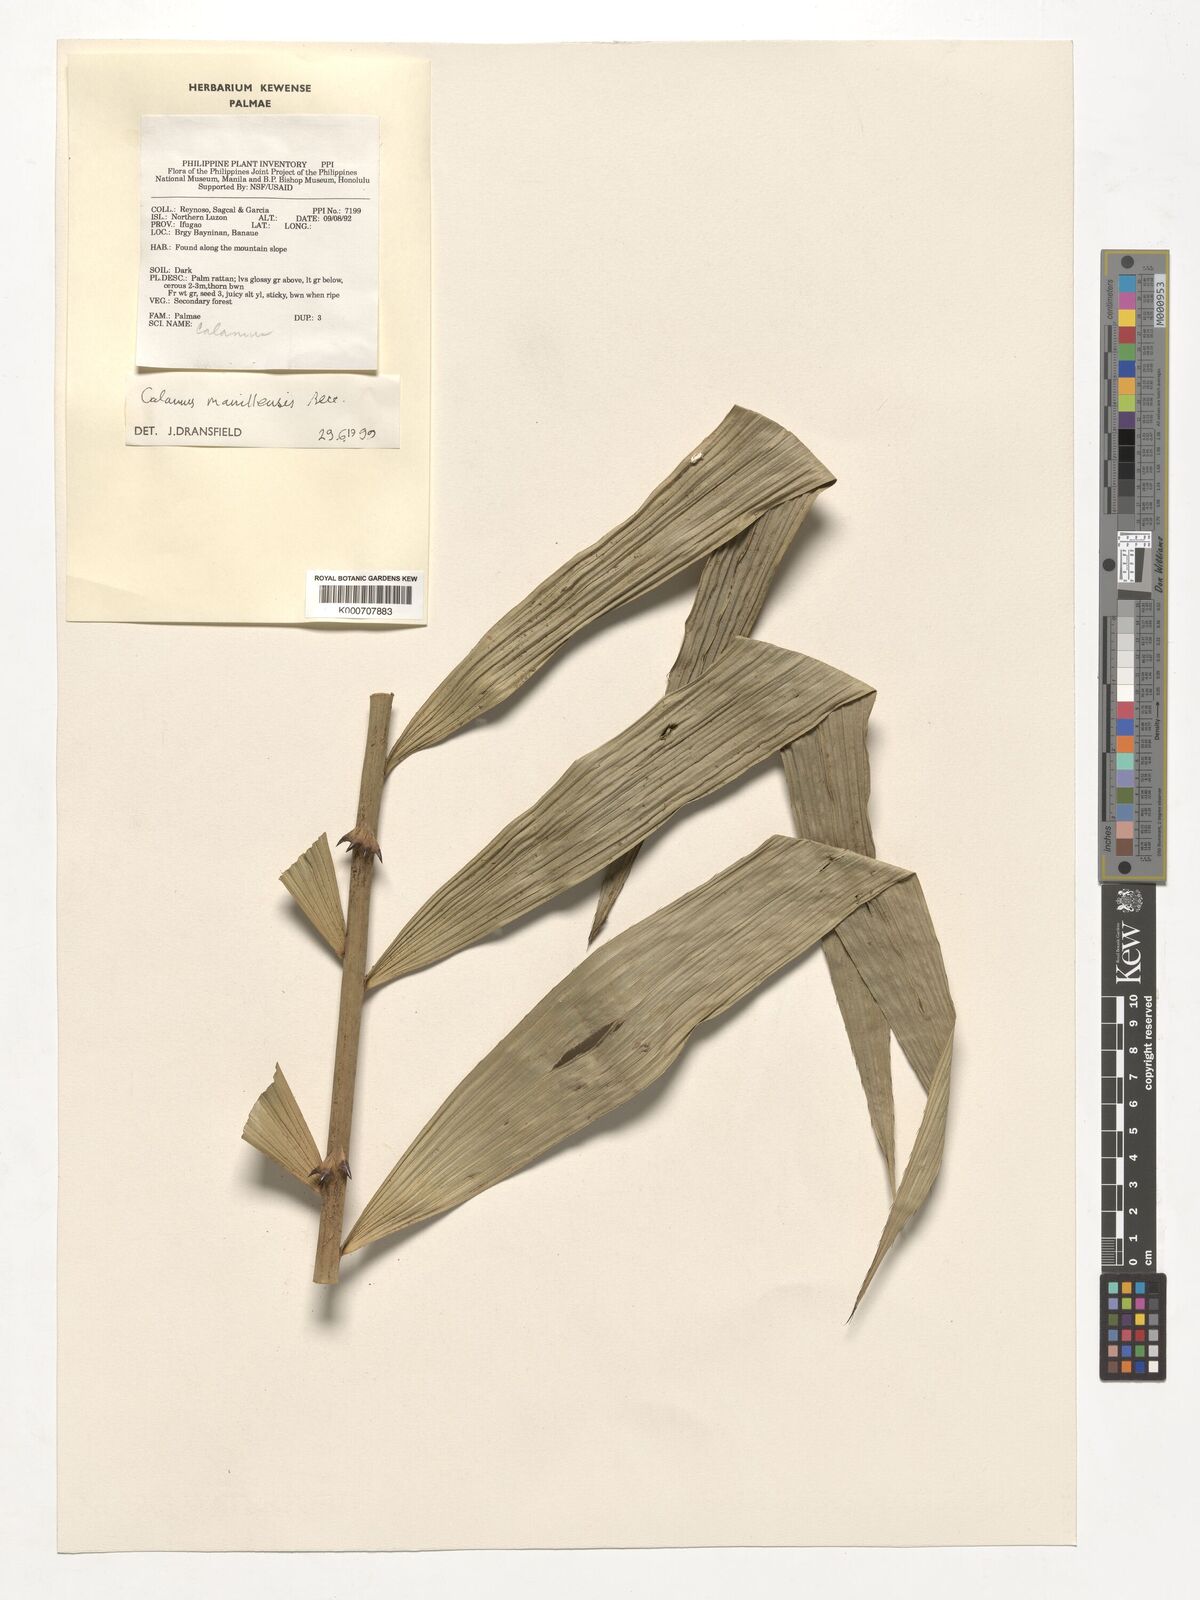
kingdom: Plantae
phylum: Tracheophyta
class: Liliopsida
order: Arecales
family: Arecaceae
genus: Calamus
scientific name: Calamus manillensis
